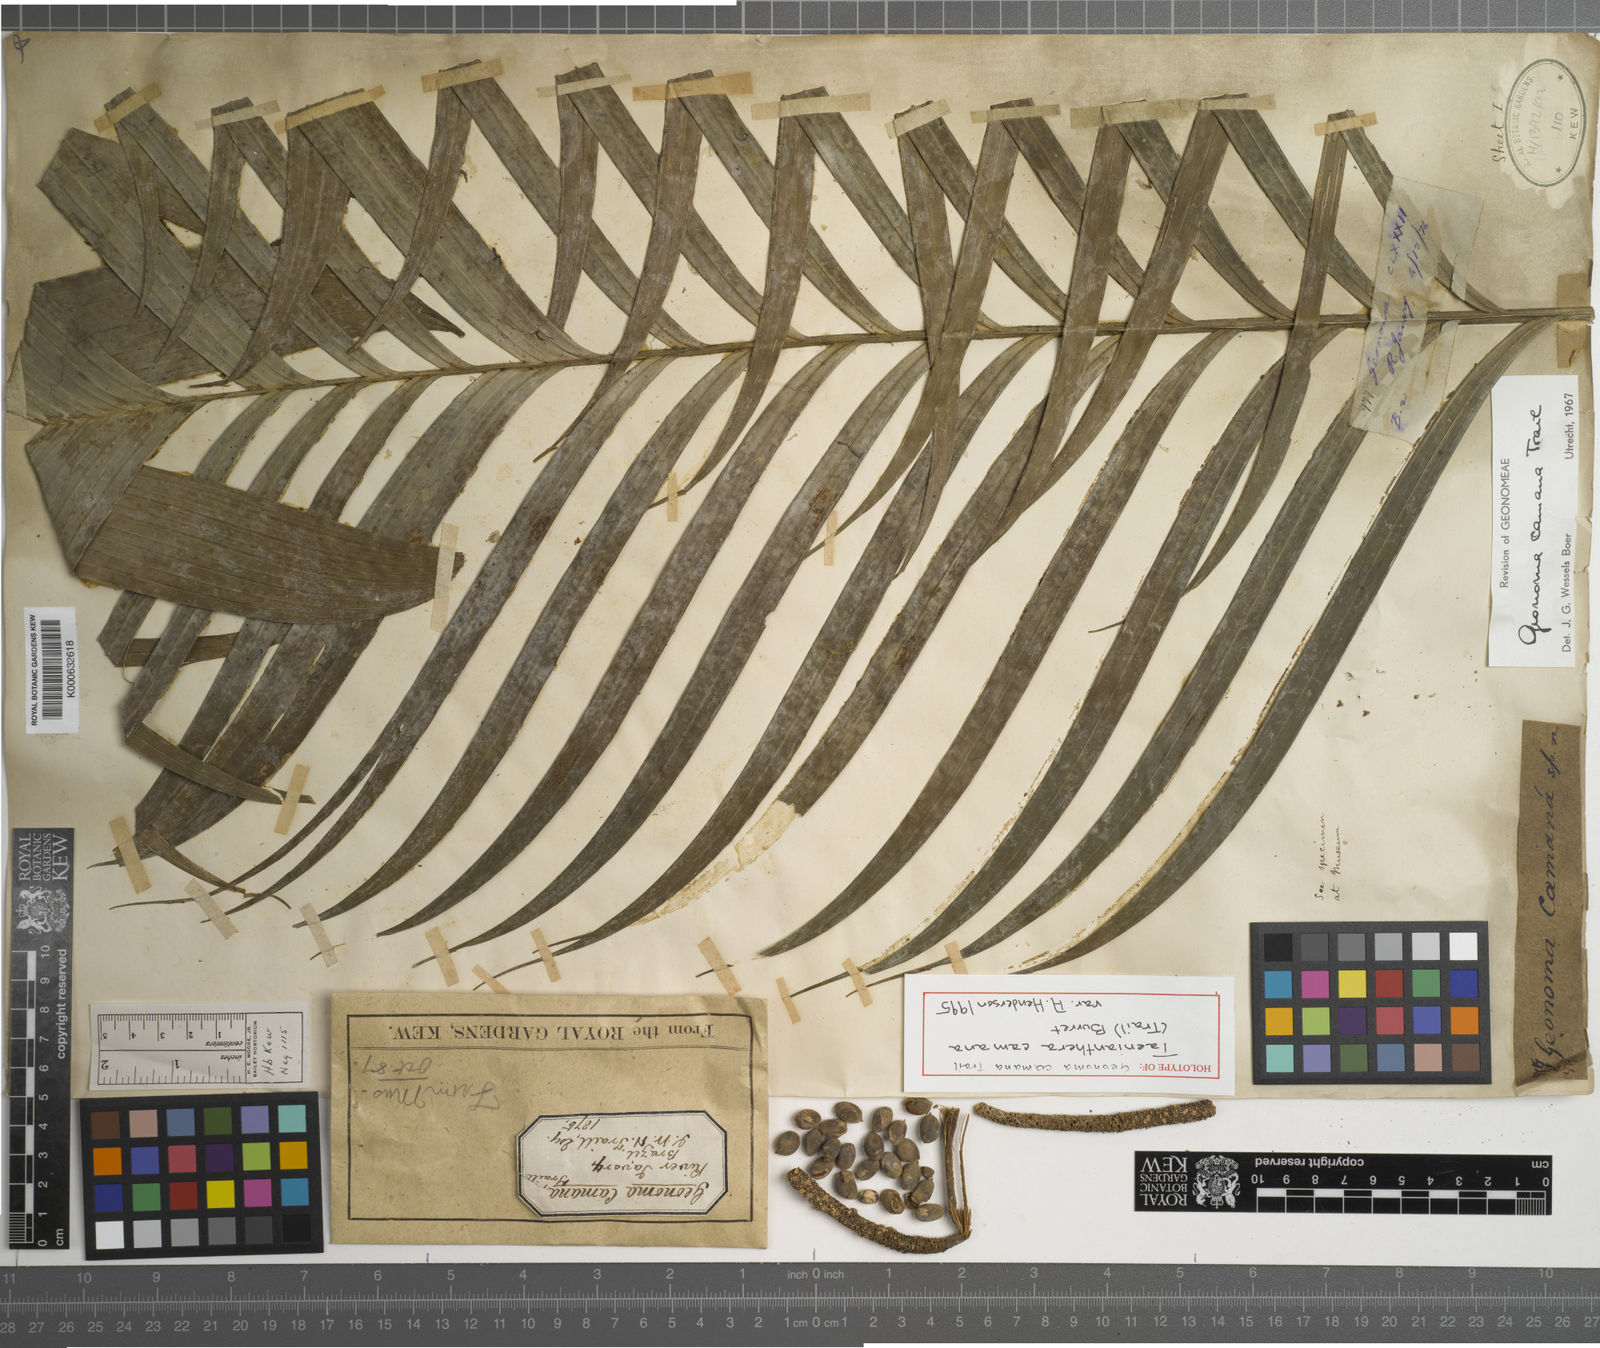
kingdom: Plantae
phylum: Tracheophyta
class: Liliopsida
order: Arecales
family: Arecaceae
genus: Geonoma
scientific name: Geonoma camana
